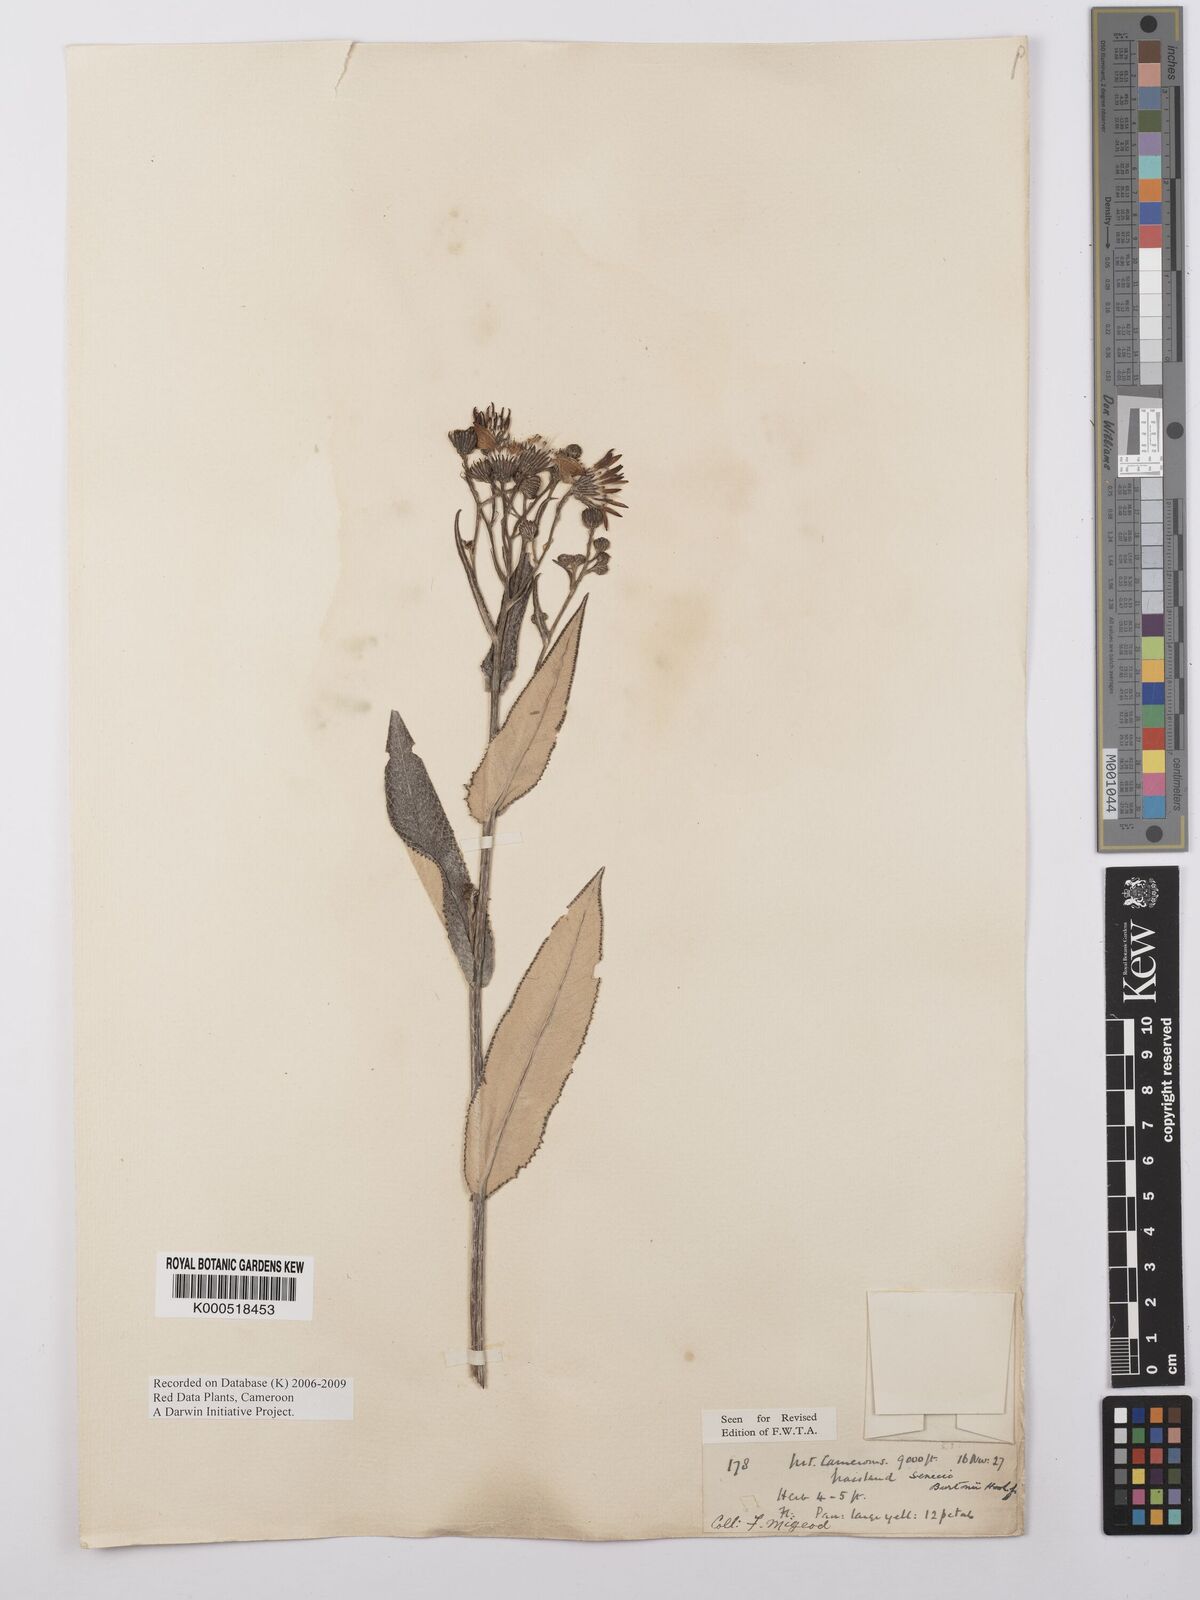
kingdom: Plantae
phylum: Tracheophyta
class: Magnoliopsida
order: Asterales
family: Asteraceae
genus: Senecio
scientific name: Senecio burtonii
